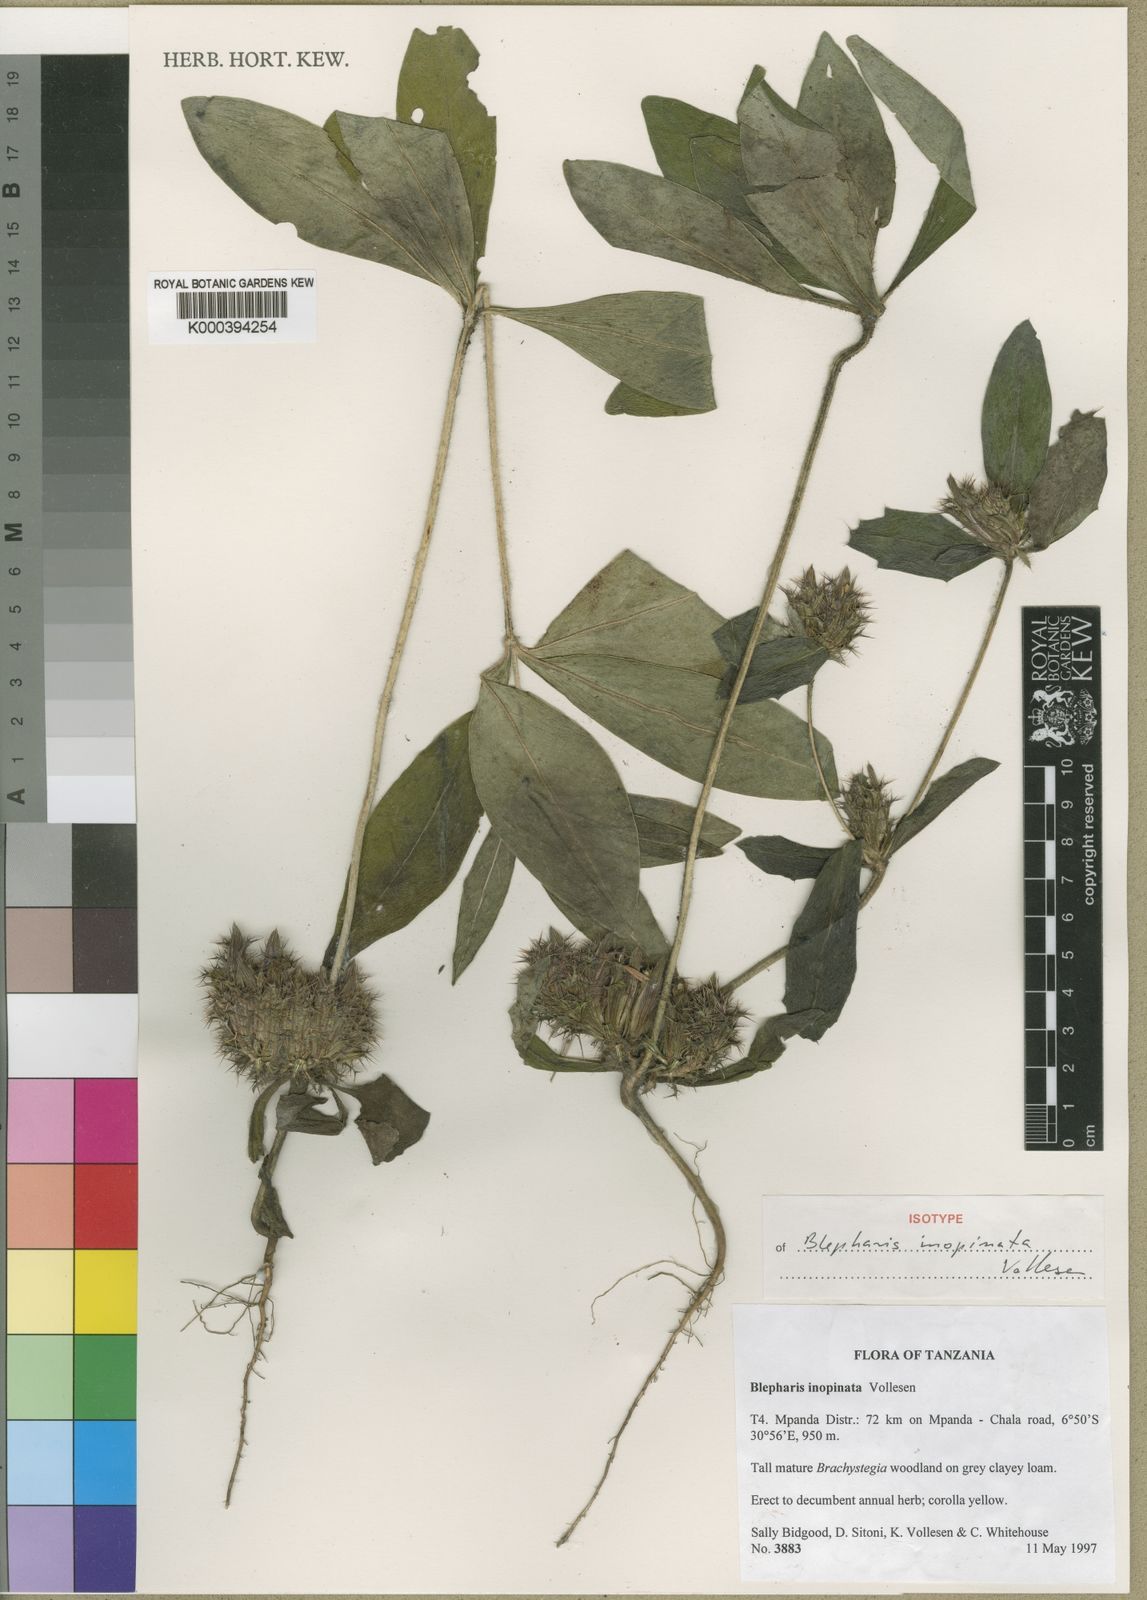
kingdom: Plantae
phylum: Tracheophyta
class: Magnoliopsida
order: Lamiales
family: Acanthaceae
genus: Blepharis
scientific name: Blepharis inopinata
